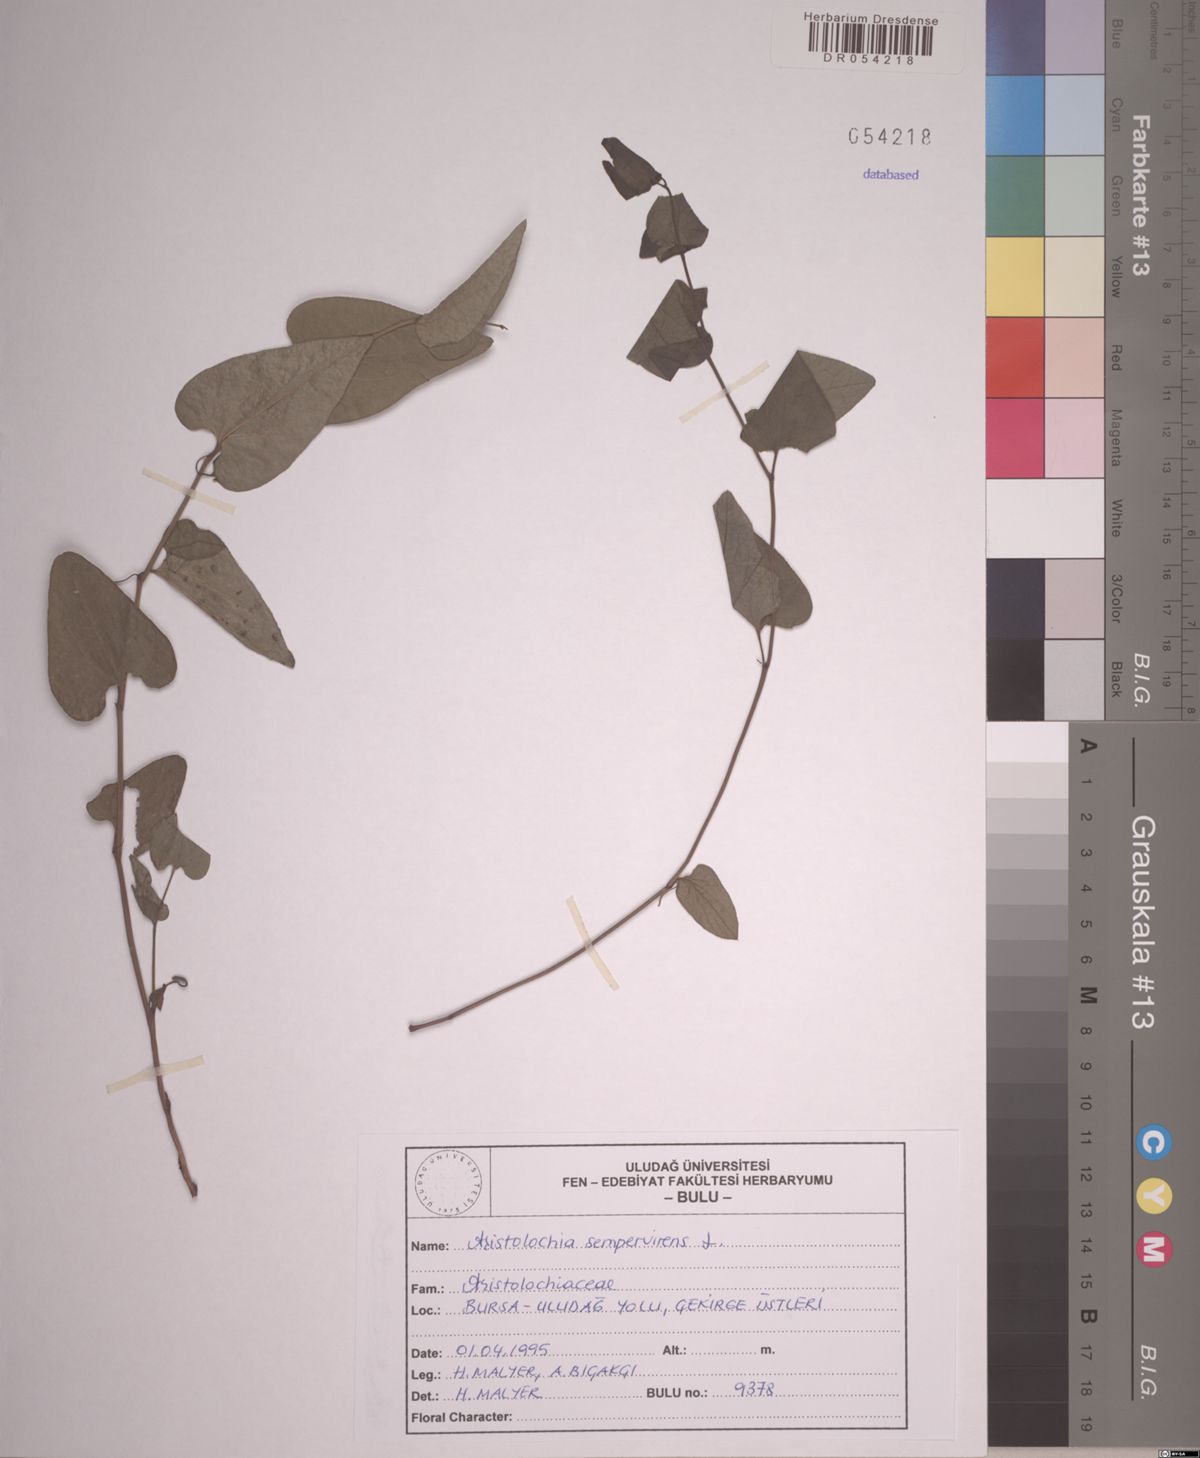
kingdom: Plantae
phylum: Tracheophyta
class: Magnoliopsida
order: Piperales
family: Aristolochiaceae
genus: Aristolochia
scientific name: Aristolochia sempervirens
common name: Long birthwort
